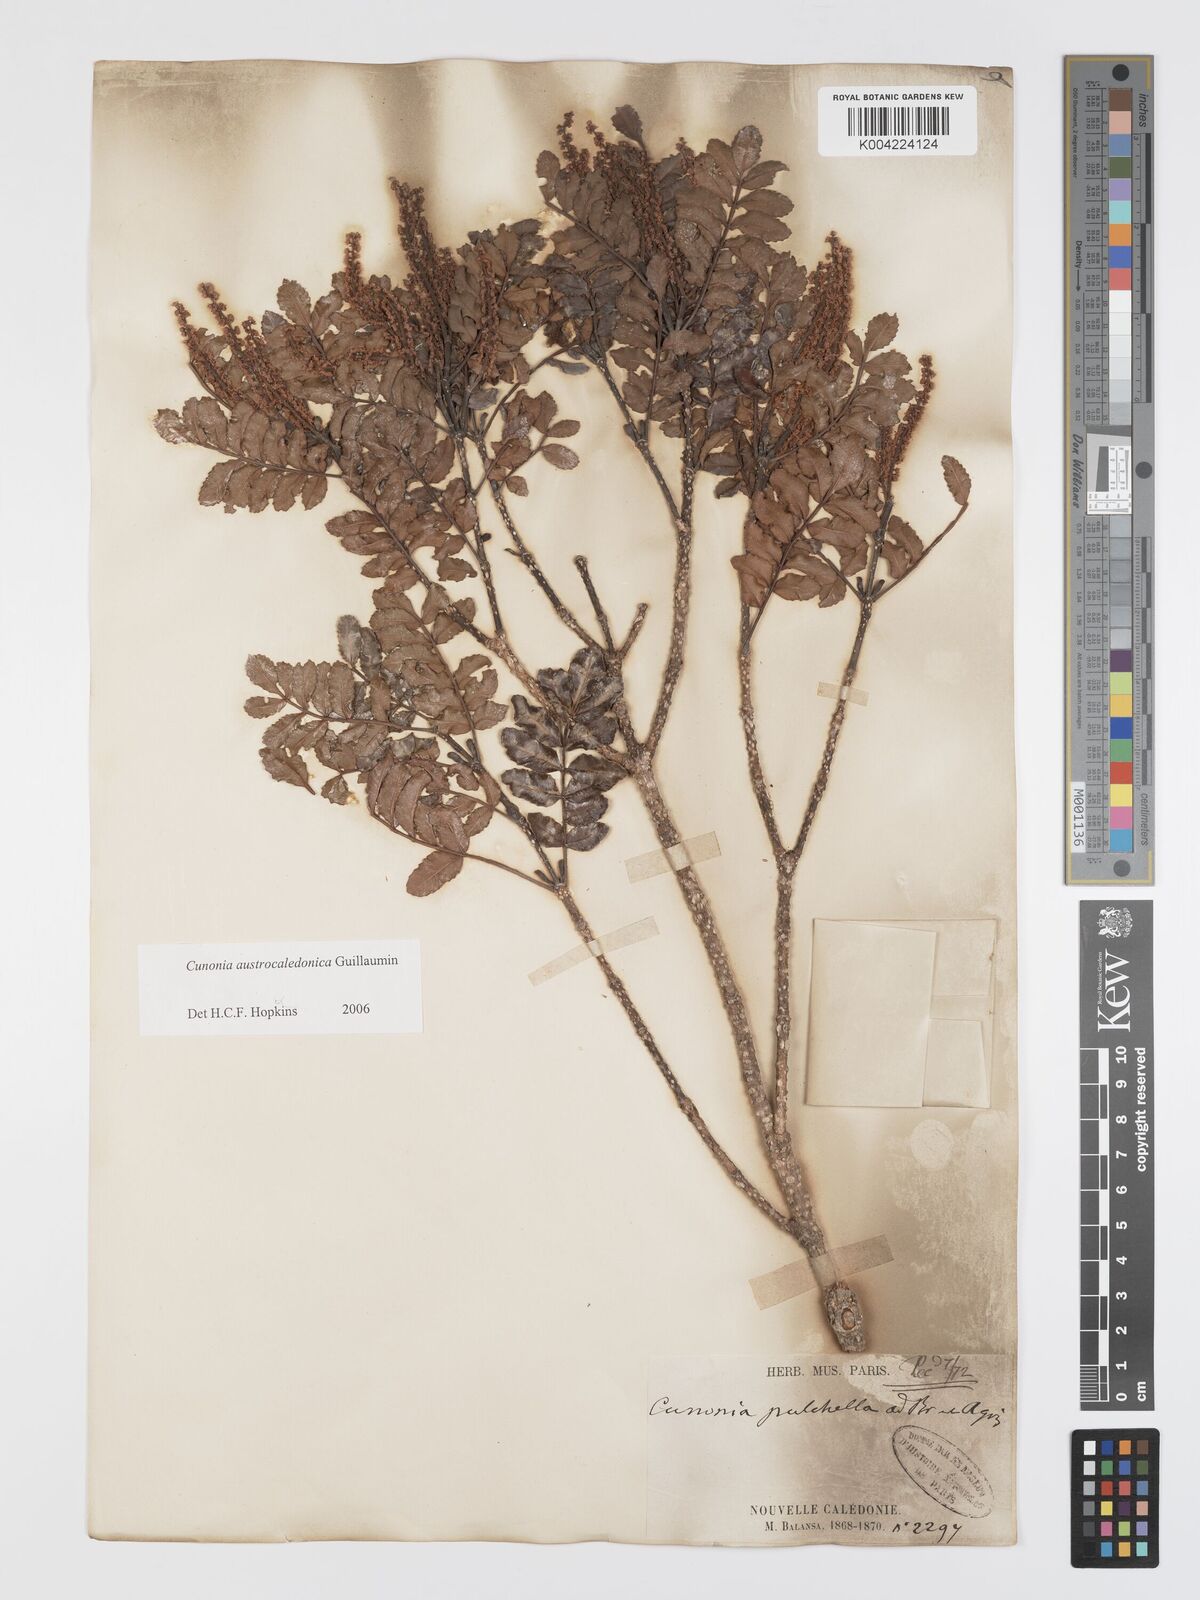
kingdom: Plantae
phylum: Tracheophyta
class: Magnoliopsida
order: Oxalidales
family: Cunoniaceae
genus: Cunonia
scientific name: Cunonia austrocaledonica
